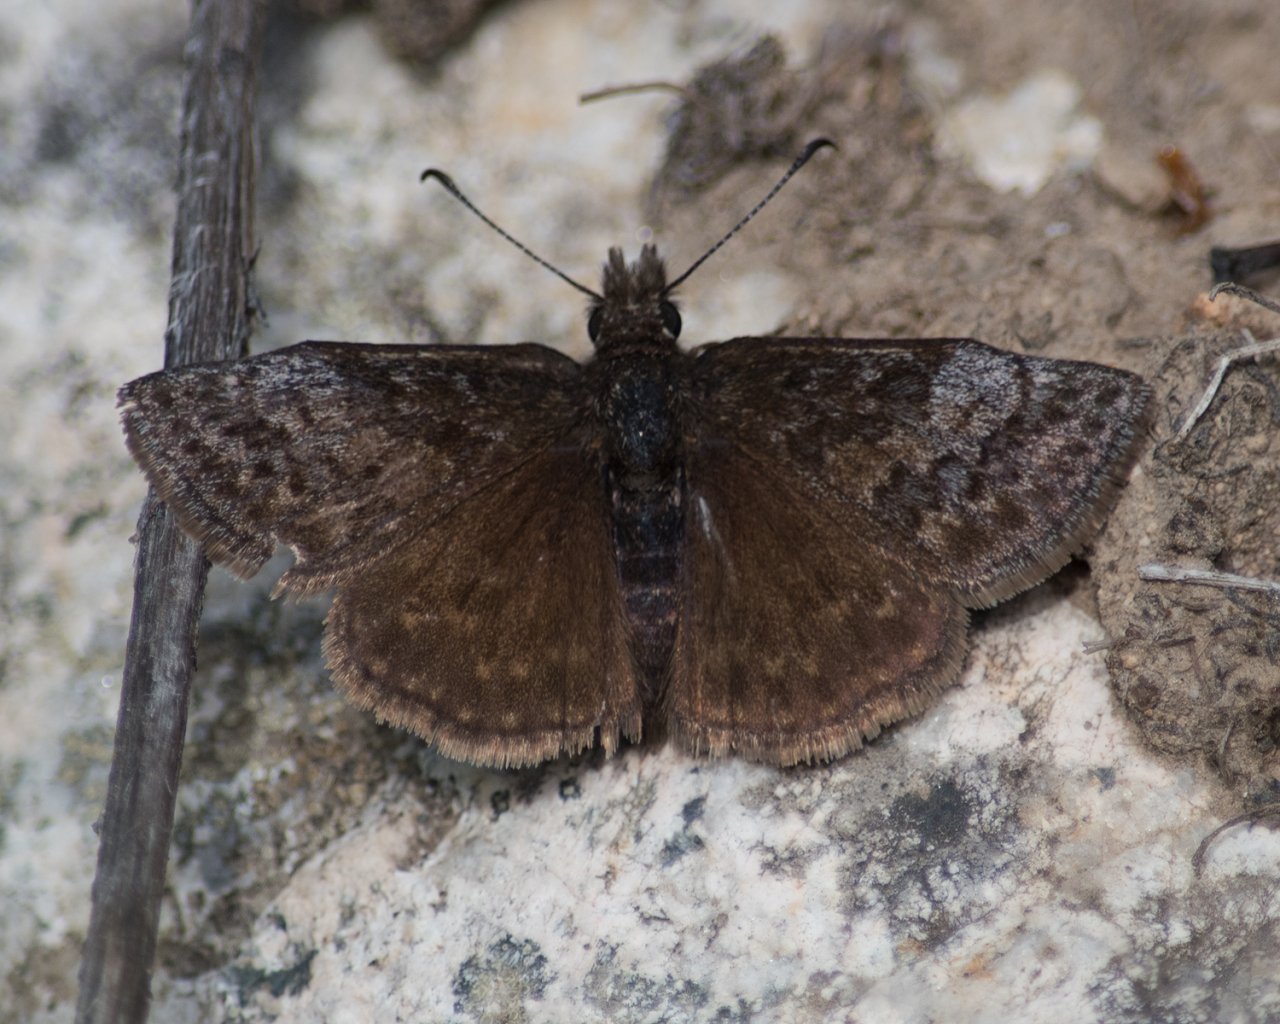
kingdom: Animalia
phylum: Arthropoda
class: Insecta
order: Lepidoptera
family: Hesperiidae
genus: Erynnis
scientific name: Erynnis icelus
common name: Dreamy Duskywing
